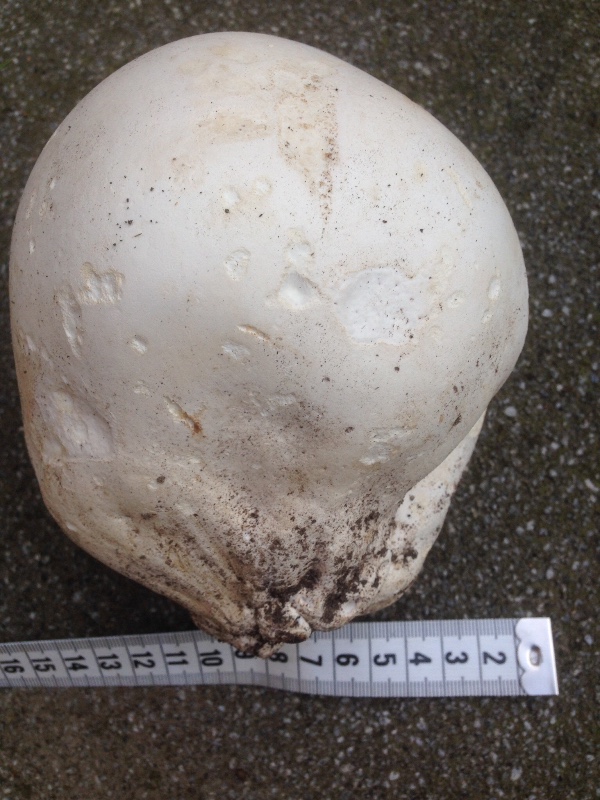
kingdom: Fungi
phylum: Basidiomycota
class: Agaricomycetes
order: Agaricales
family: Lycoperdaceae
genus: Calvatia
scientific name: Calvatia gigantea
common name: kæmpestøvbold
